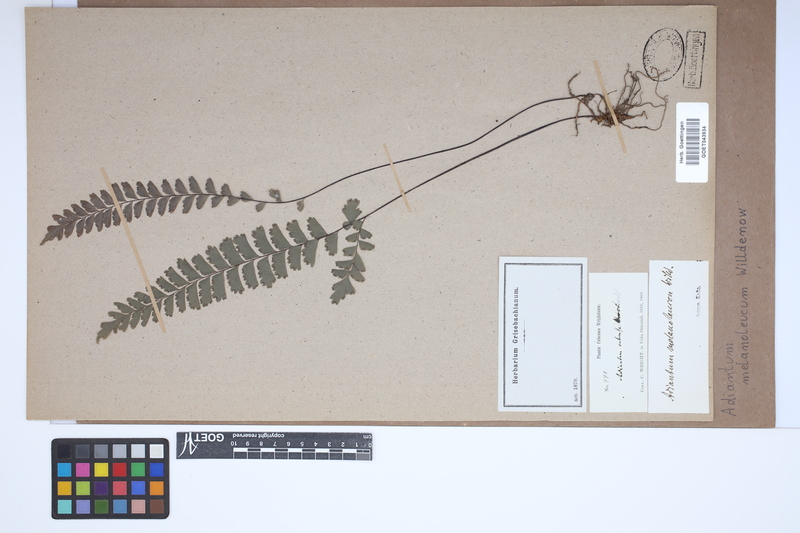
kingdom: Plantae
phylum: Tracheophyta
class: Polypodiopsida
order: Polypodiales
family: Pteridaceae
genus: Adiantum
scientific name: Adiantum melanoleucum
